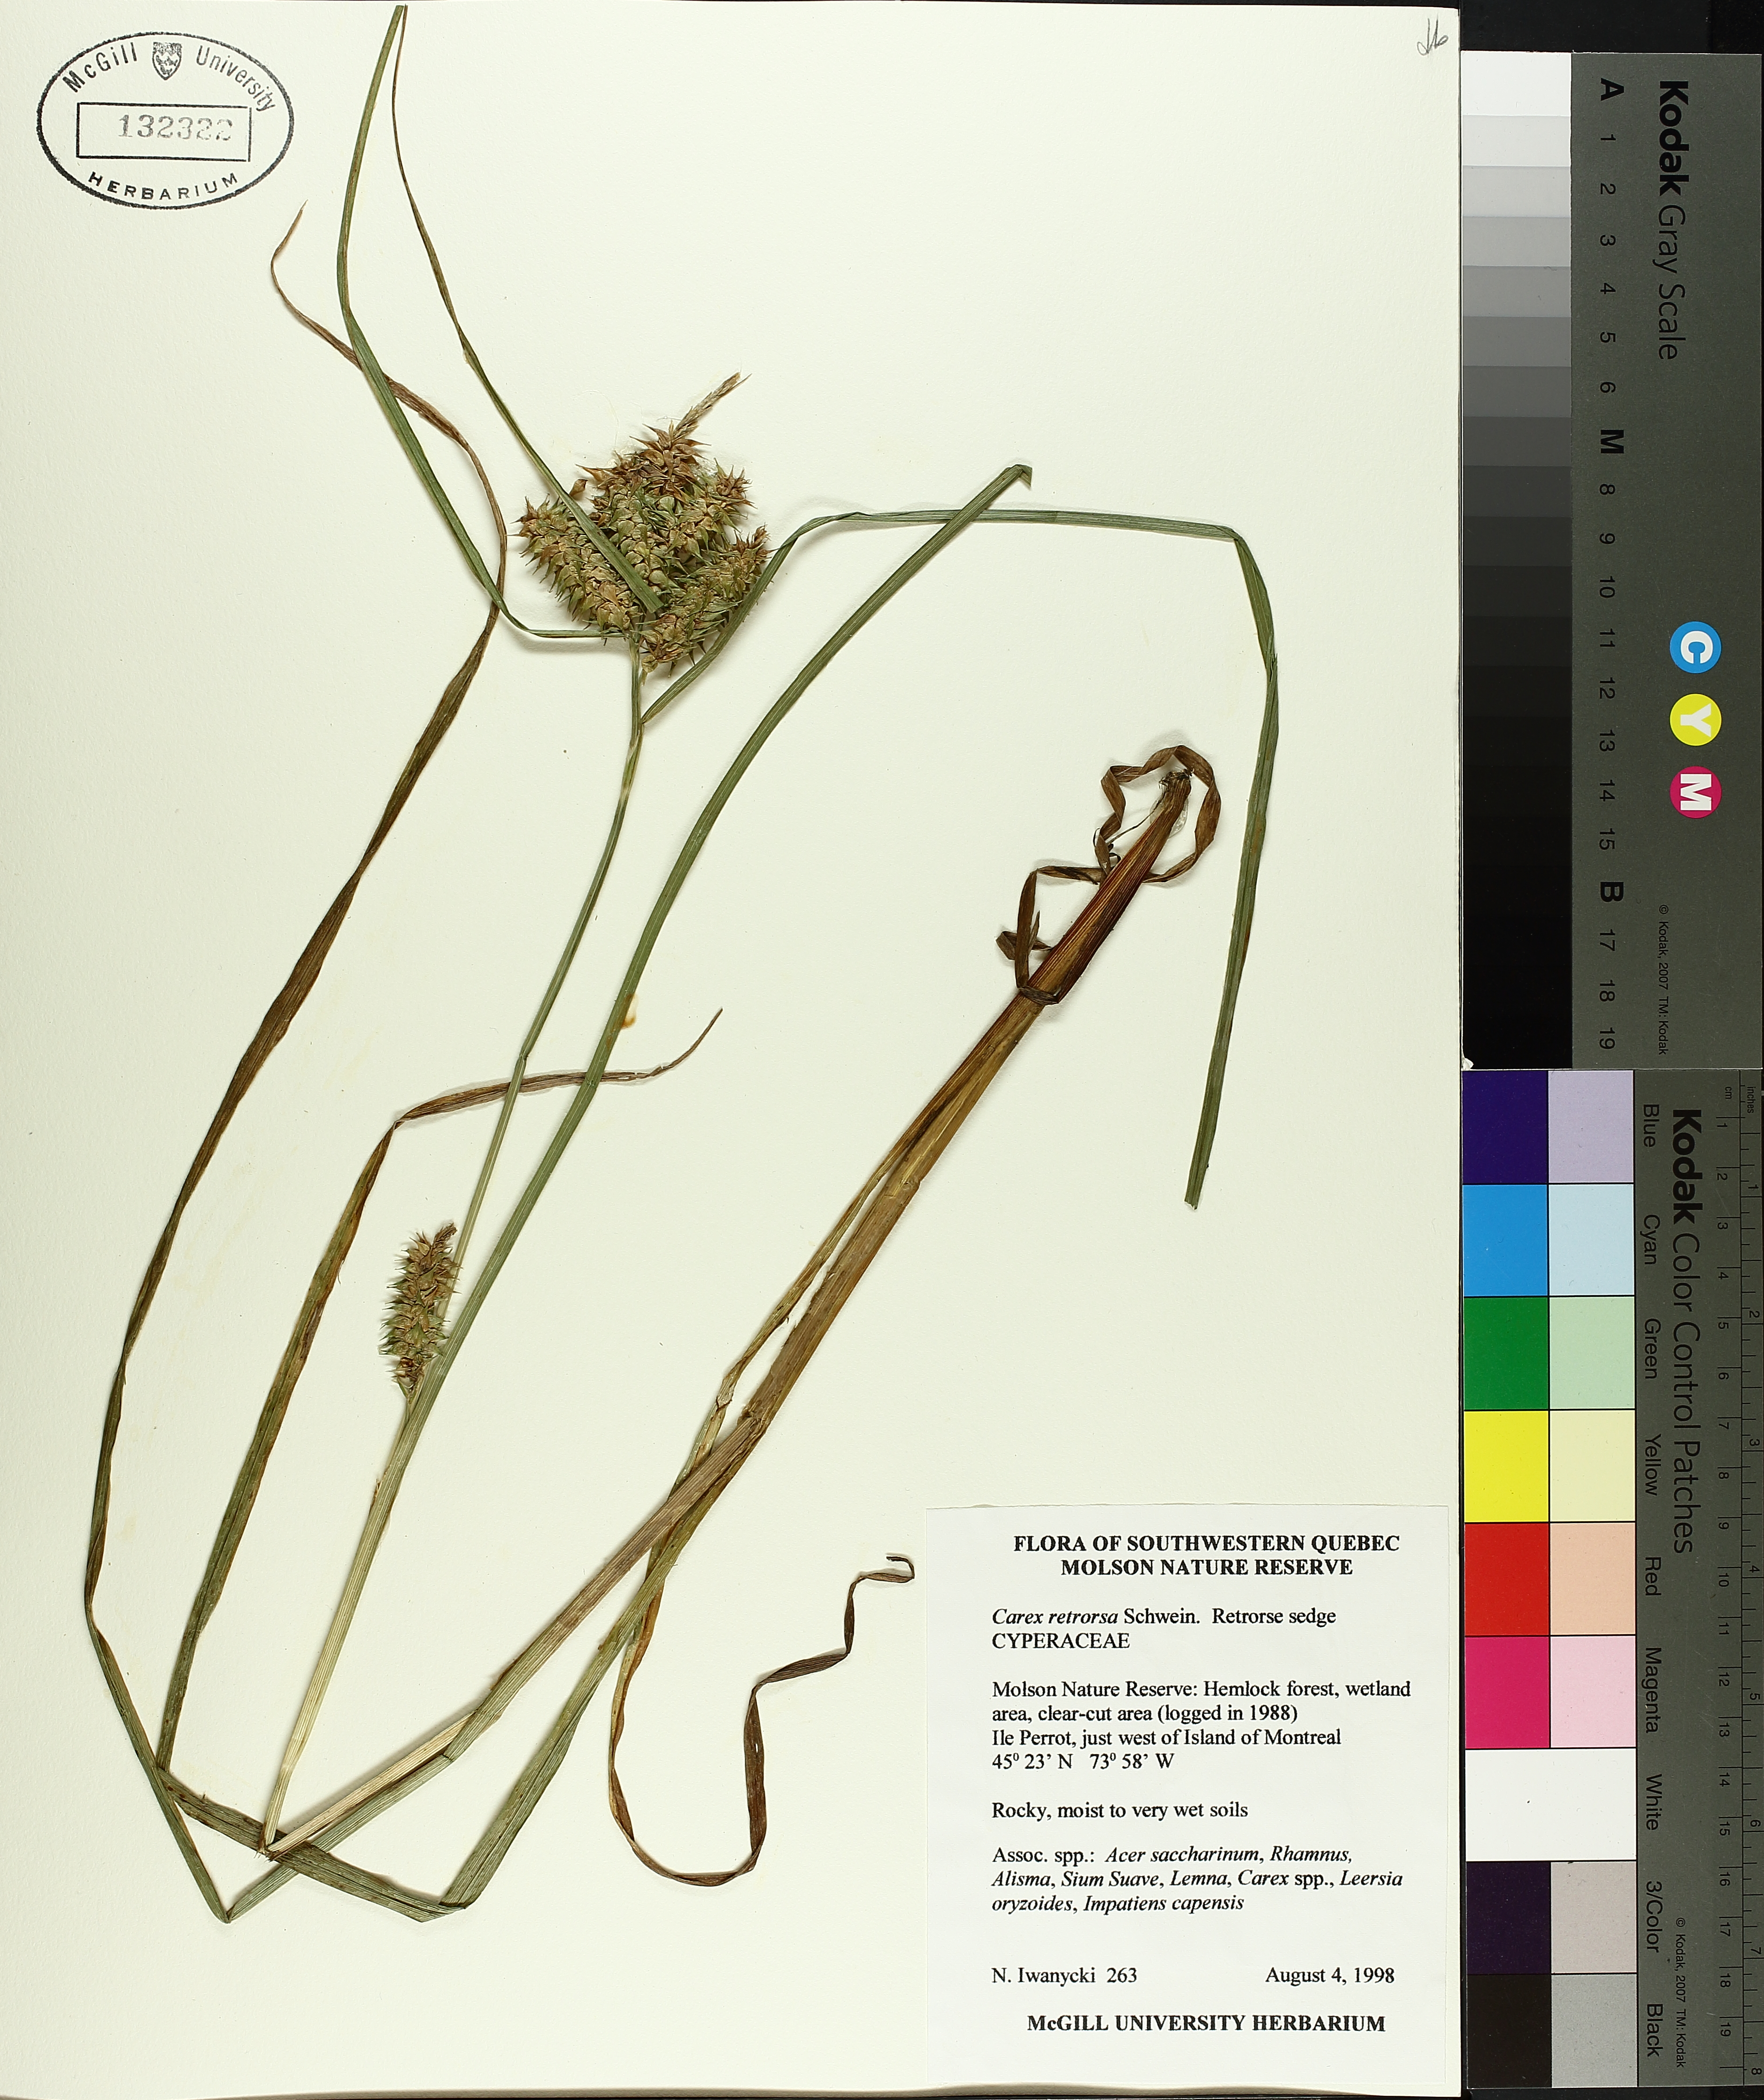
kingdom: Plantae
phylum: Tracheophyta
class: Liliopsida
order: Poales
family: Cyperaceae
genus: Carex
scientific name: Carex mendocinensis
